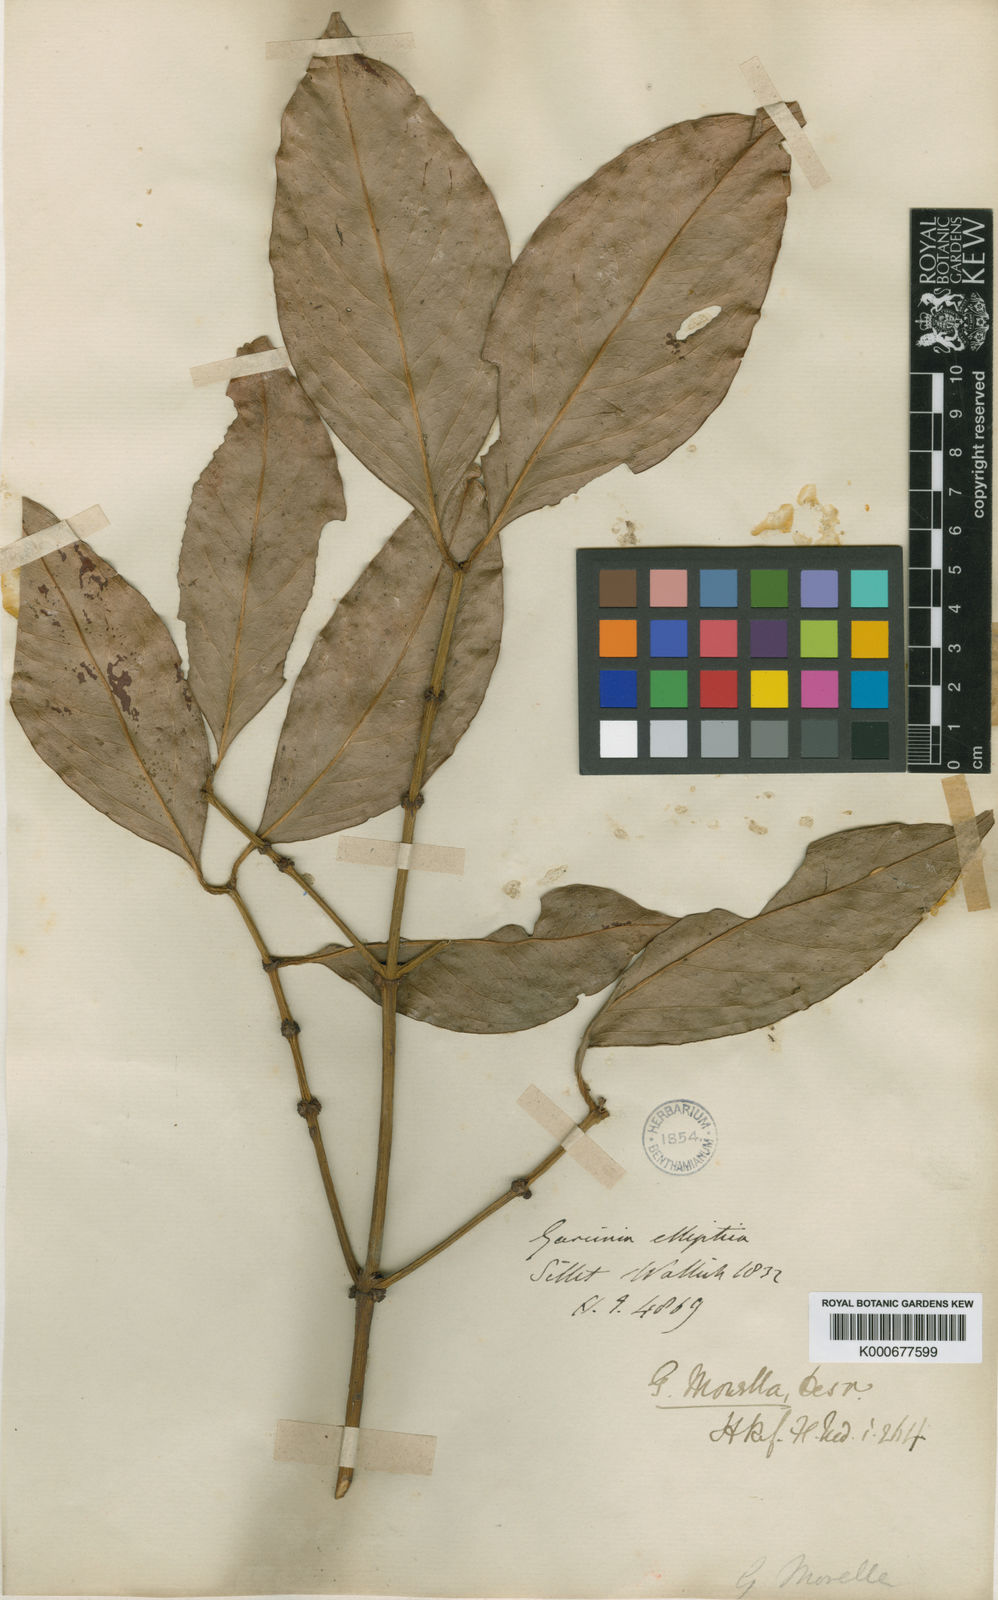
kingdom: Plantae
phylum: Tracheophyta
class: Magnoliopsida
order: Malpighiales
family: Clusiaceae
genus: Garcinia
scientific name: Garcinia
